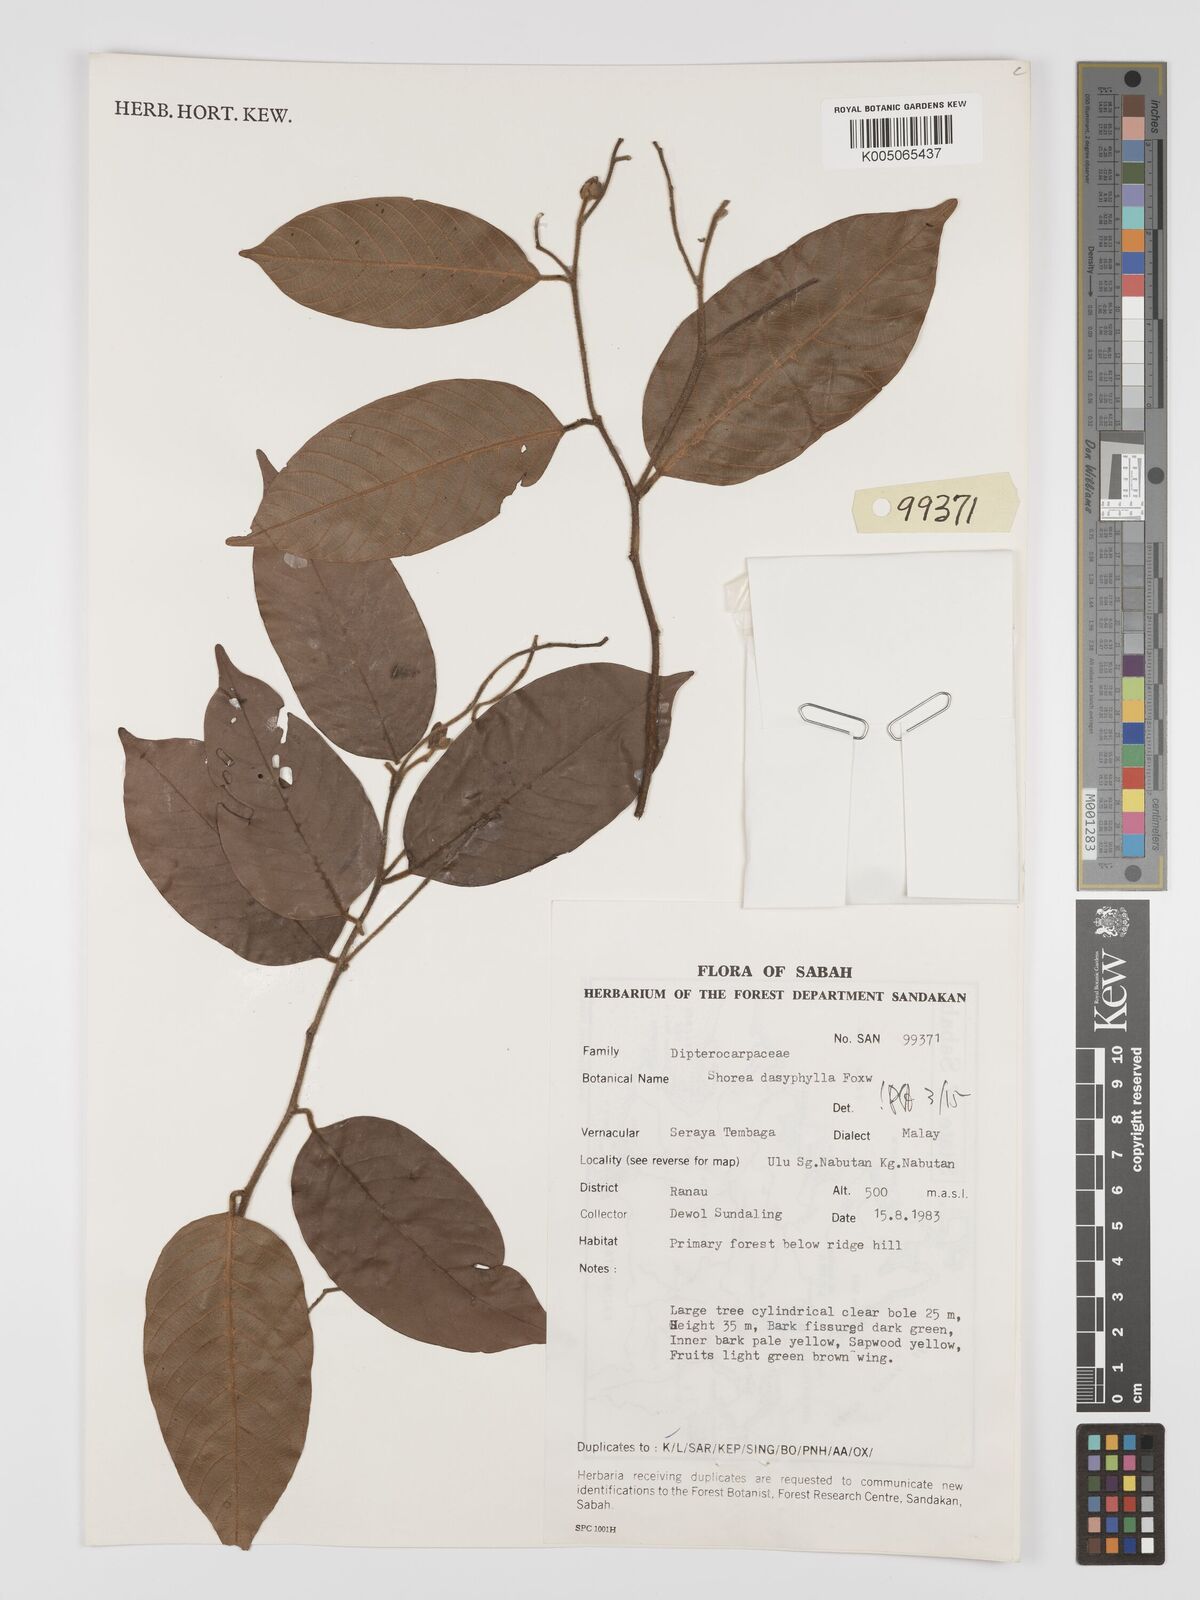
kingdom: Plantae
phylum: Tracheophyta
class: Magnoliopsida
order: Malvales
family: Dipterocarpaceae
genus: Shorea
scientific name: Shorea dasyphylla
